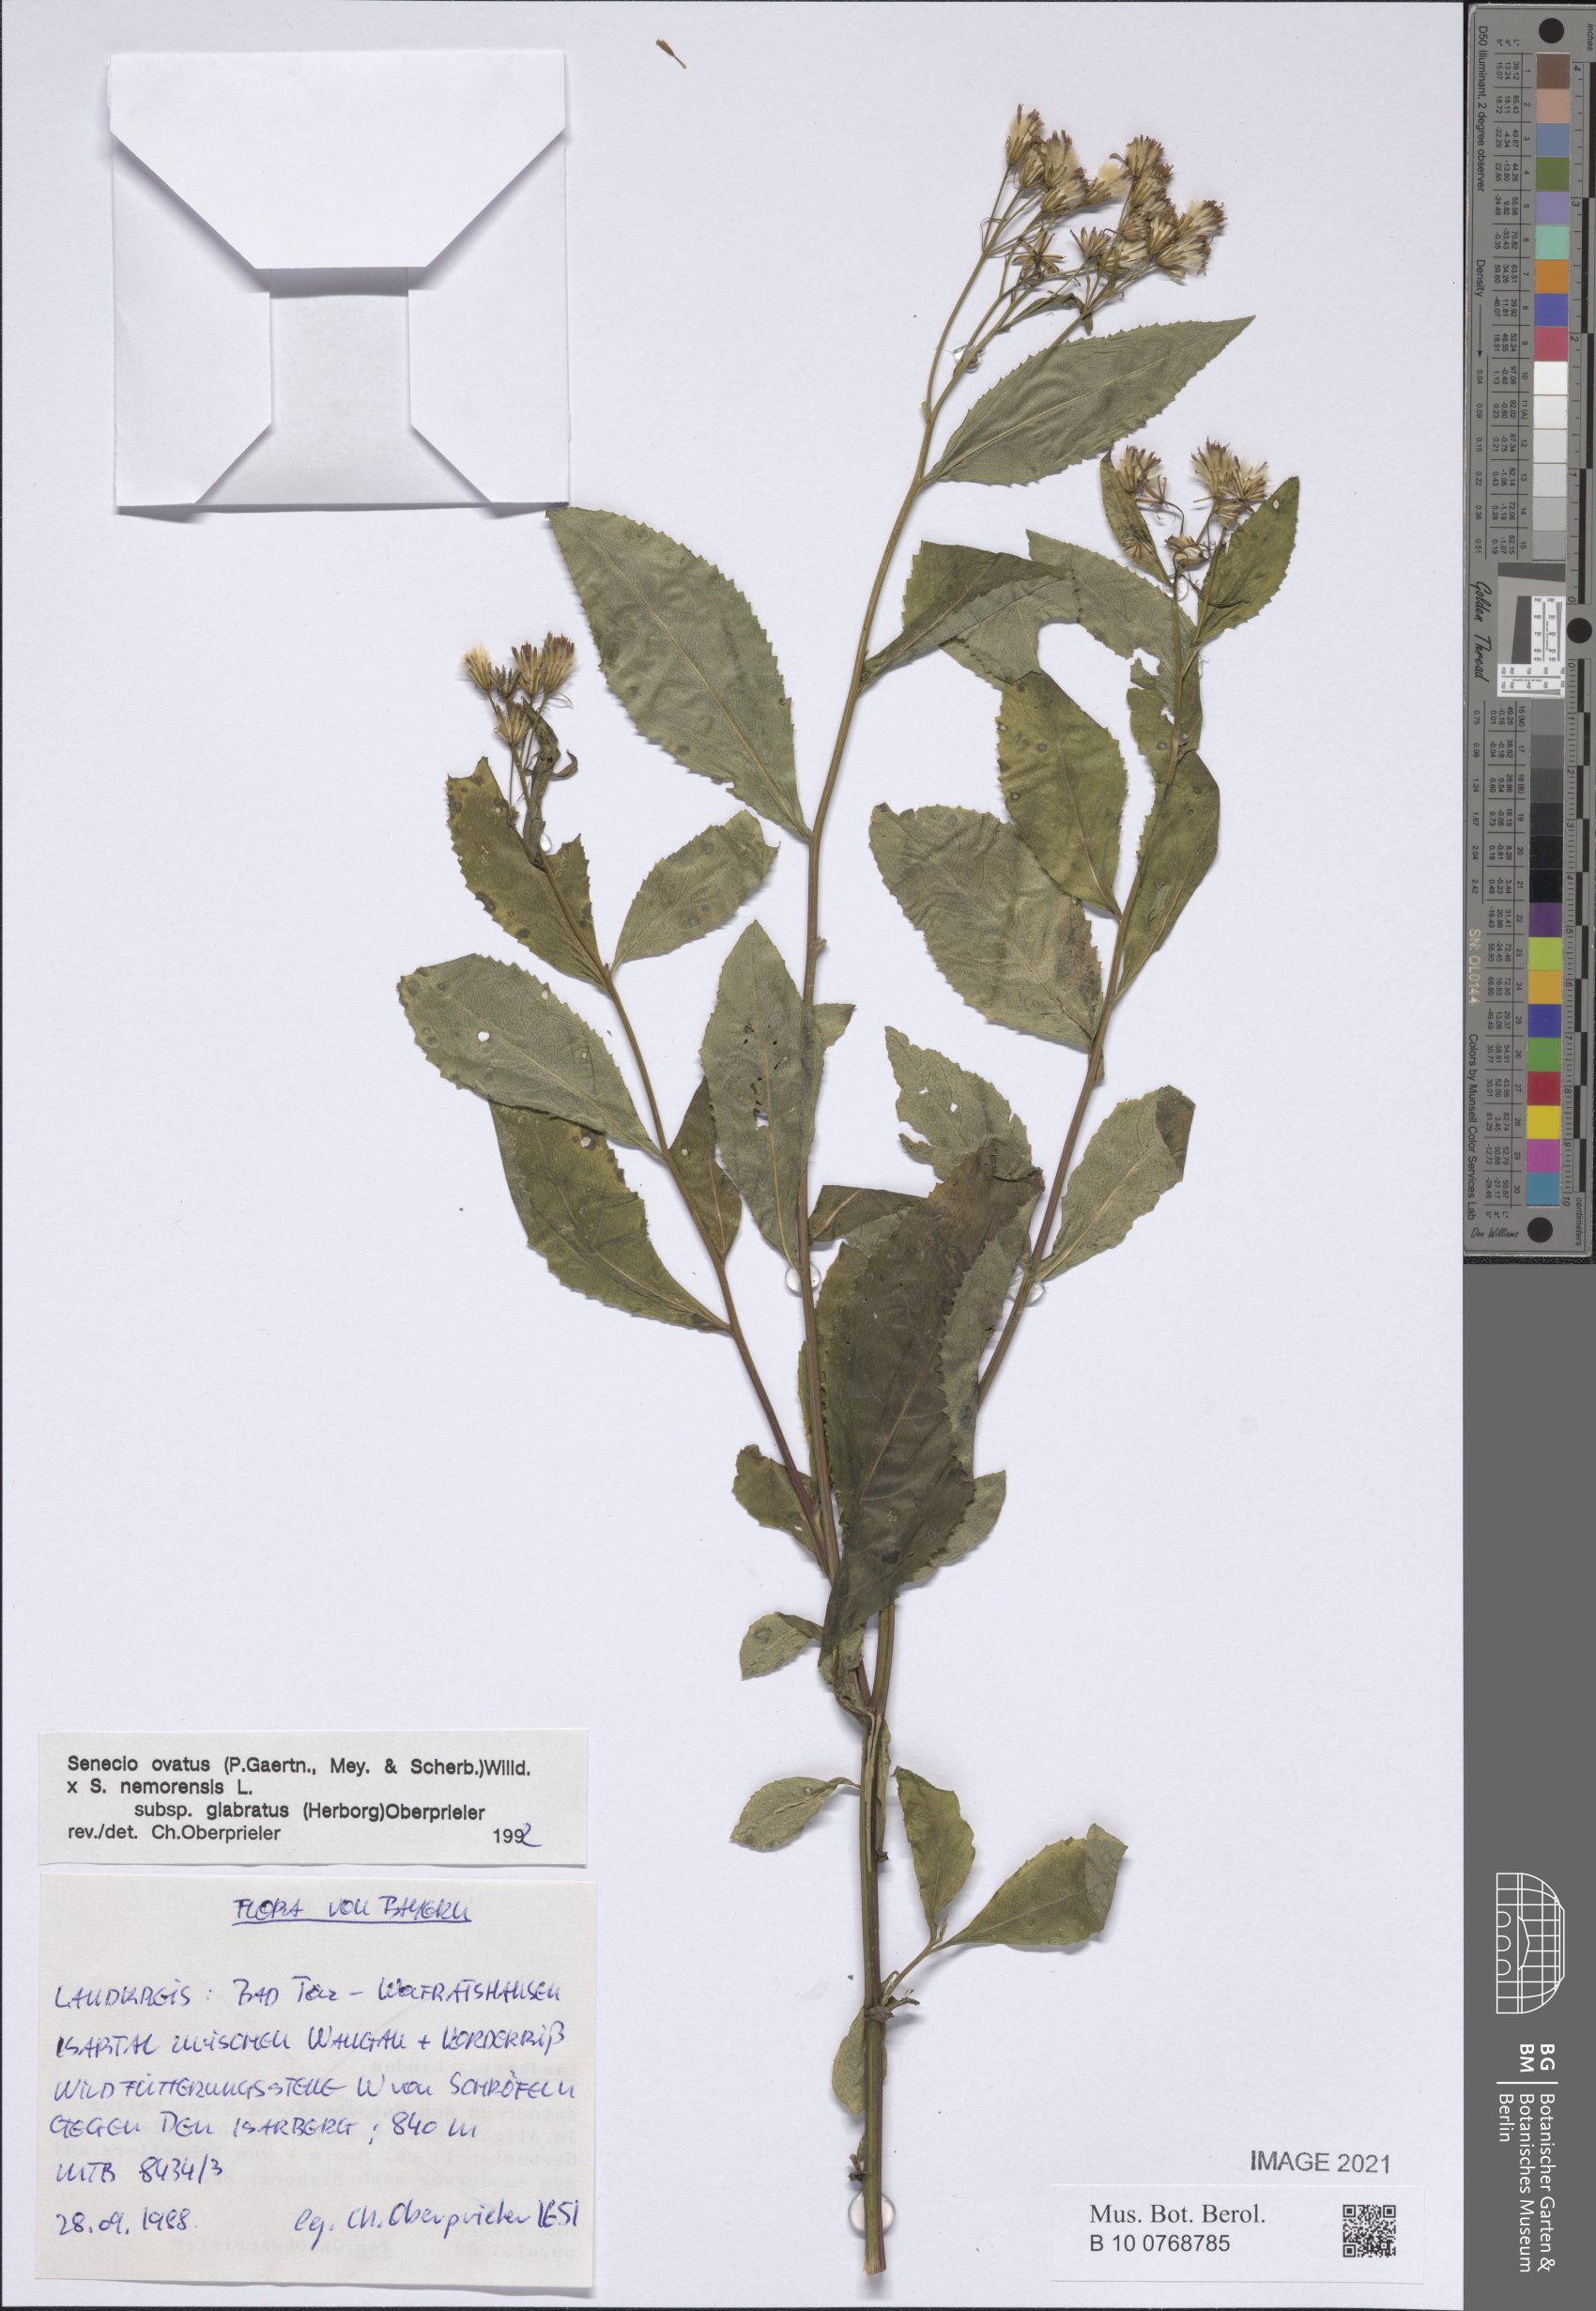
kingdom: Plantae
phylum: Tracheophyta
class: Magnoliopsida
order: Asterales
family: Asteraceae
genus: Senecio
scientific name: Senecio ovatus
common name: Wood ragwort
